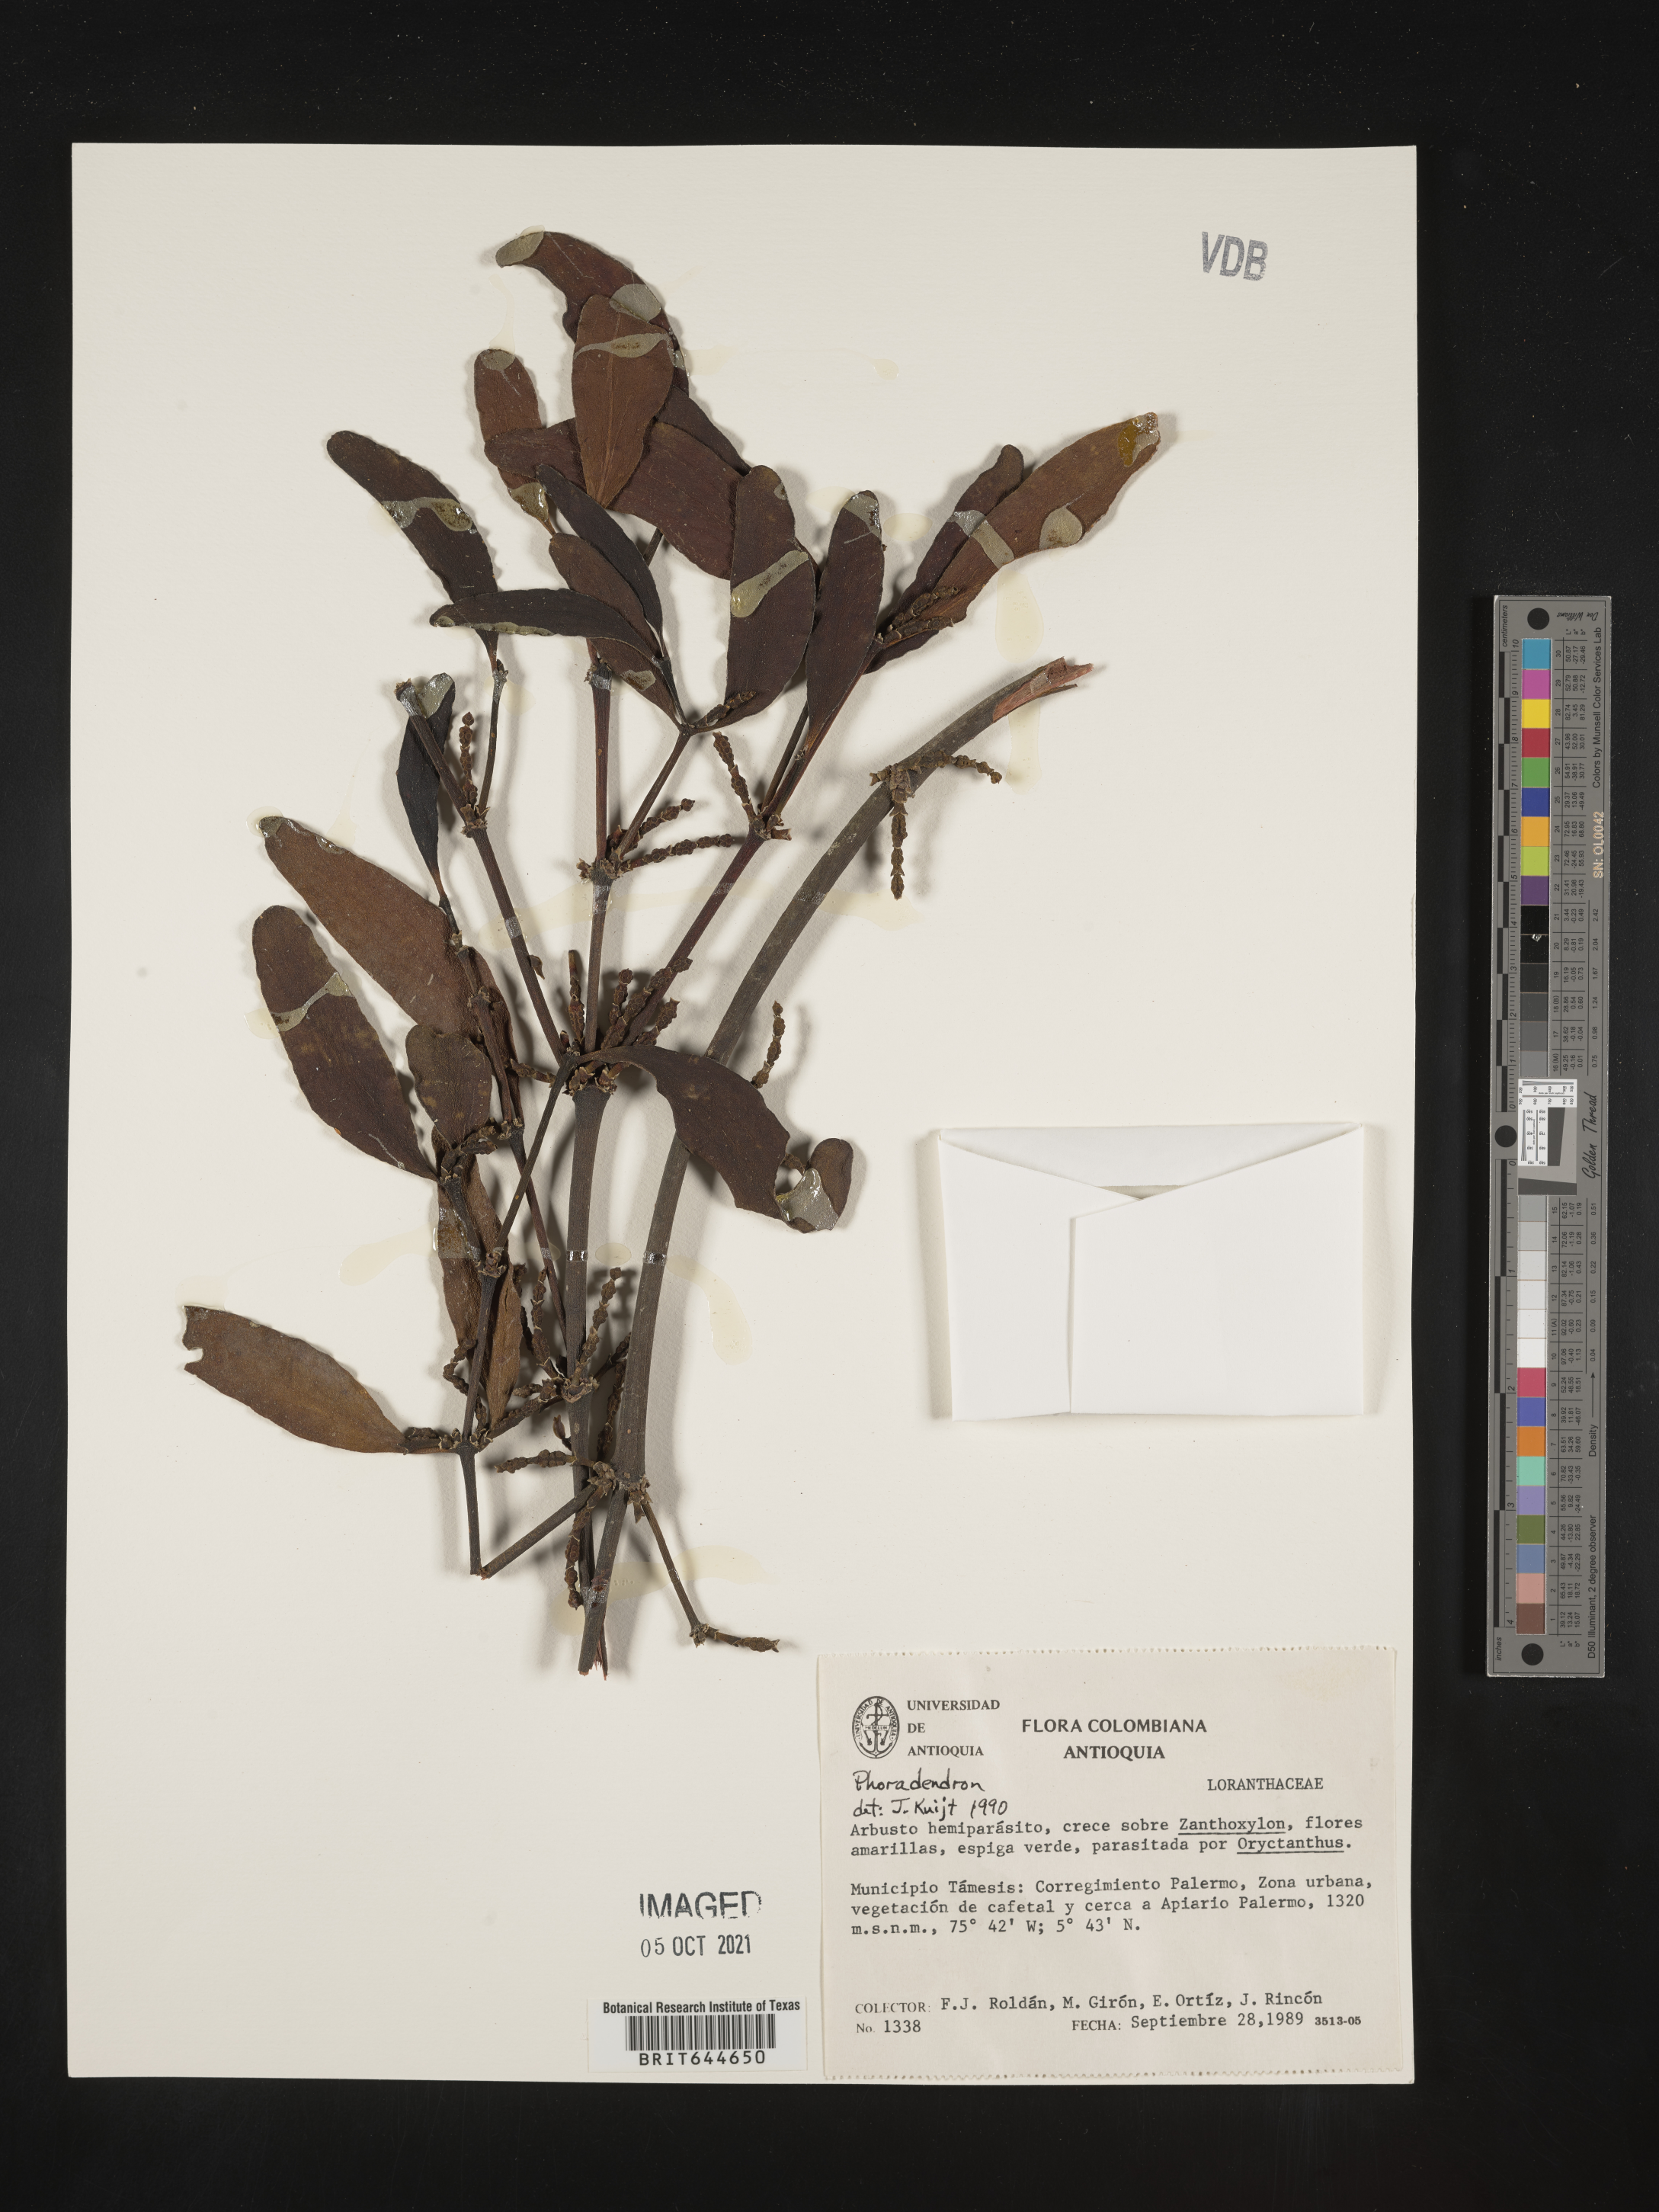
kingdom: Plantae
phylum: Tracheophyta
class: Magnoliopsida
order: Santalales
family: Viscaceae
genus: Phoradendron
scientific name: Phoradendron
